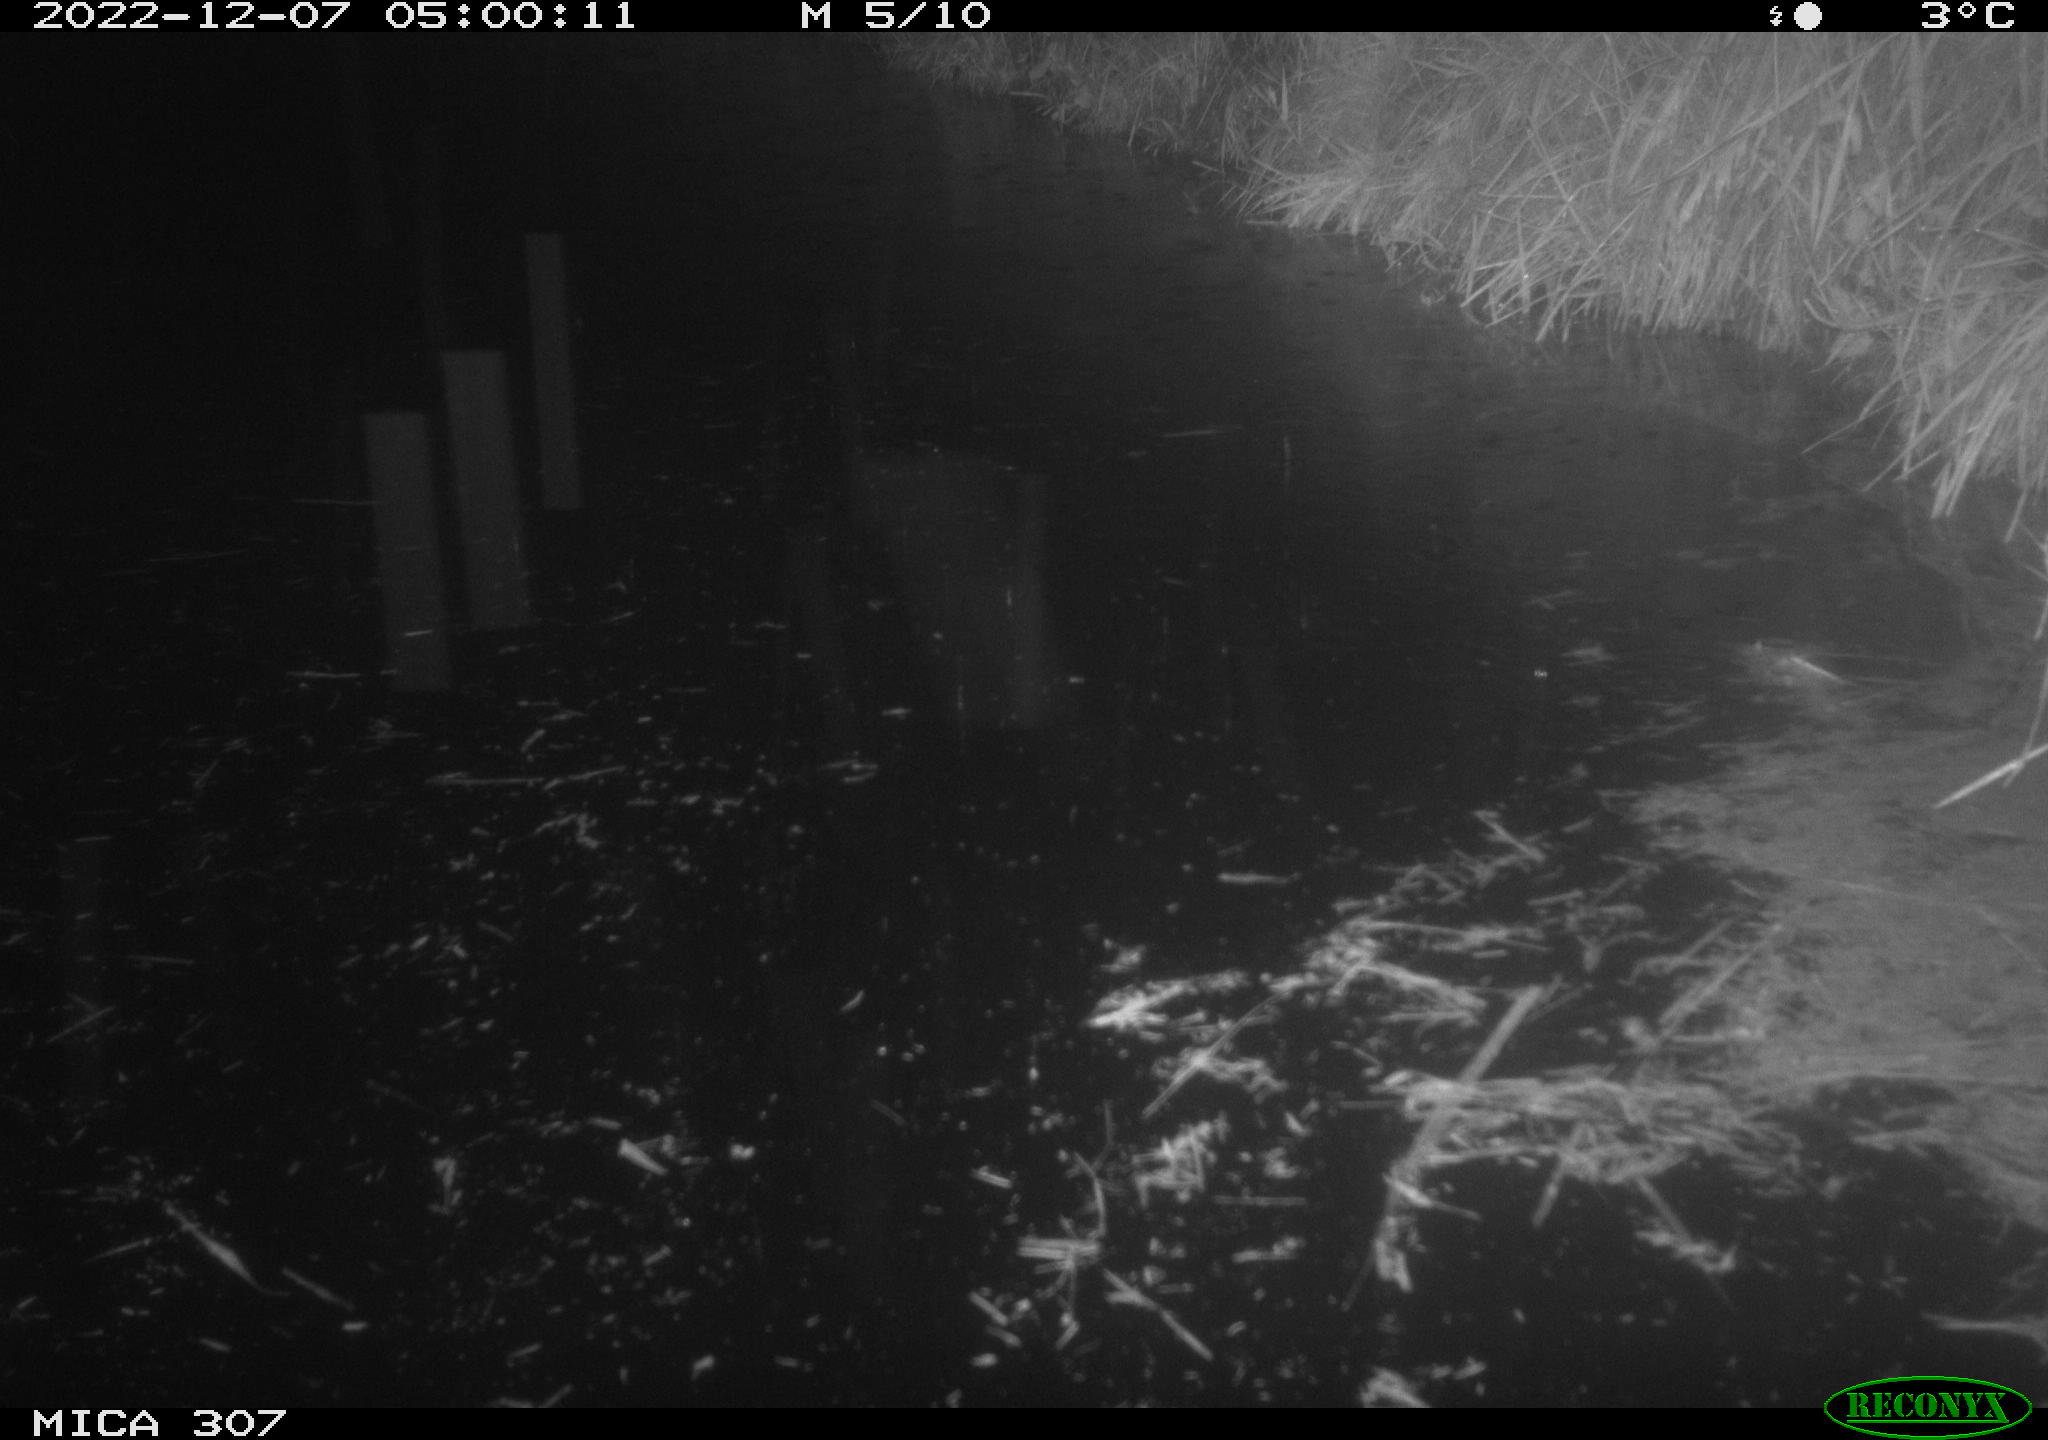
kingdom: Animalia
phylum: Chordata
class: Mammalia
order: Rodentia
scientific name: Rodentia
